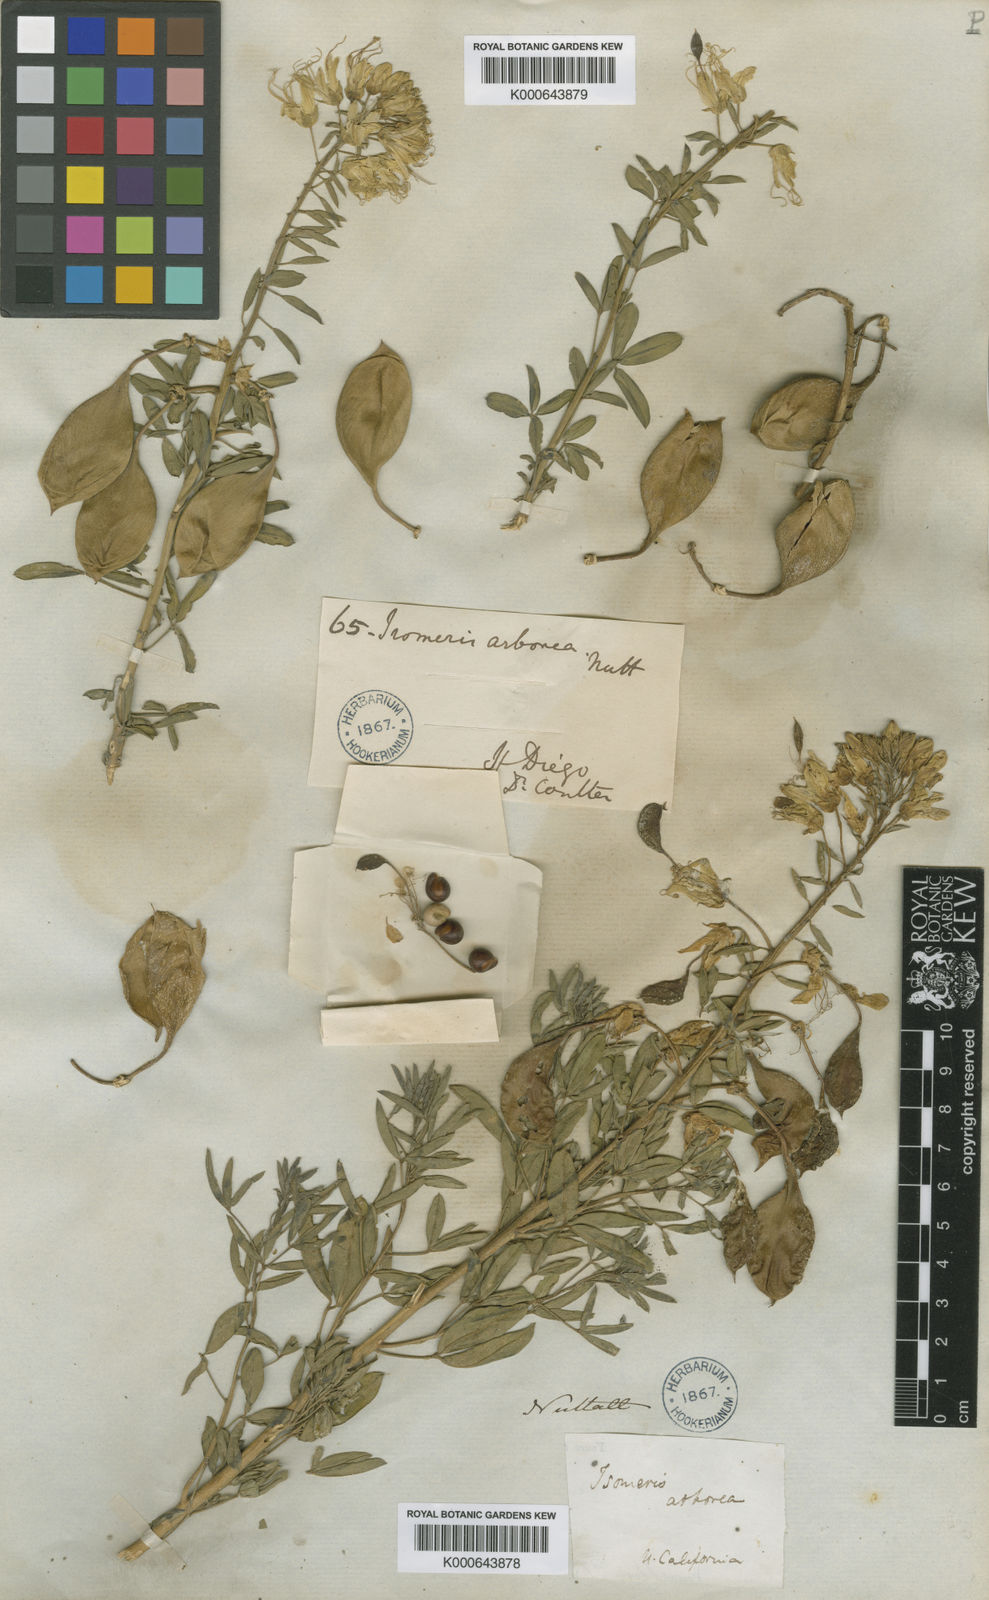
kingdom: Plantae
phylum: Charophyta
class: Charophyceae
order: Charales
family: Characeae
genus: Cristatella
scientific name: Cristatella
